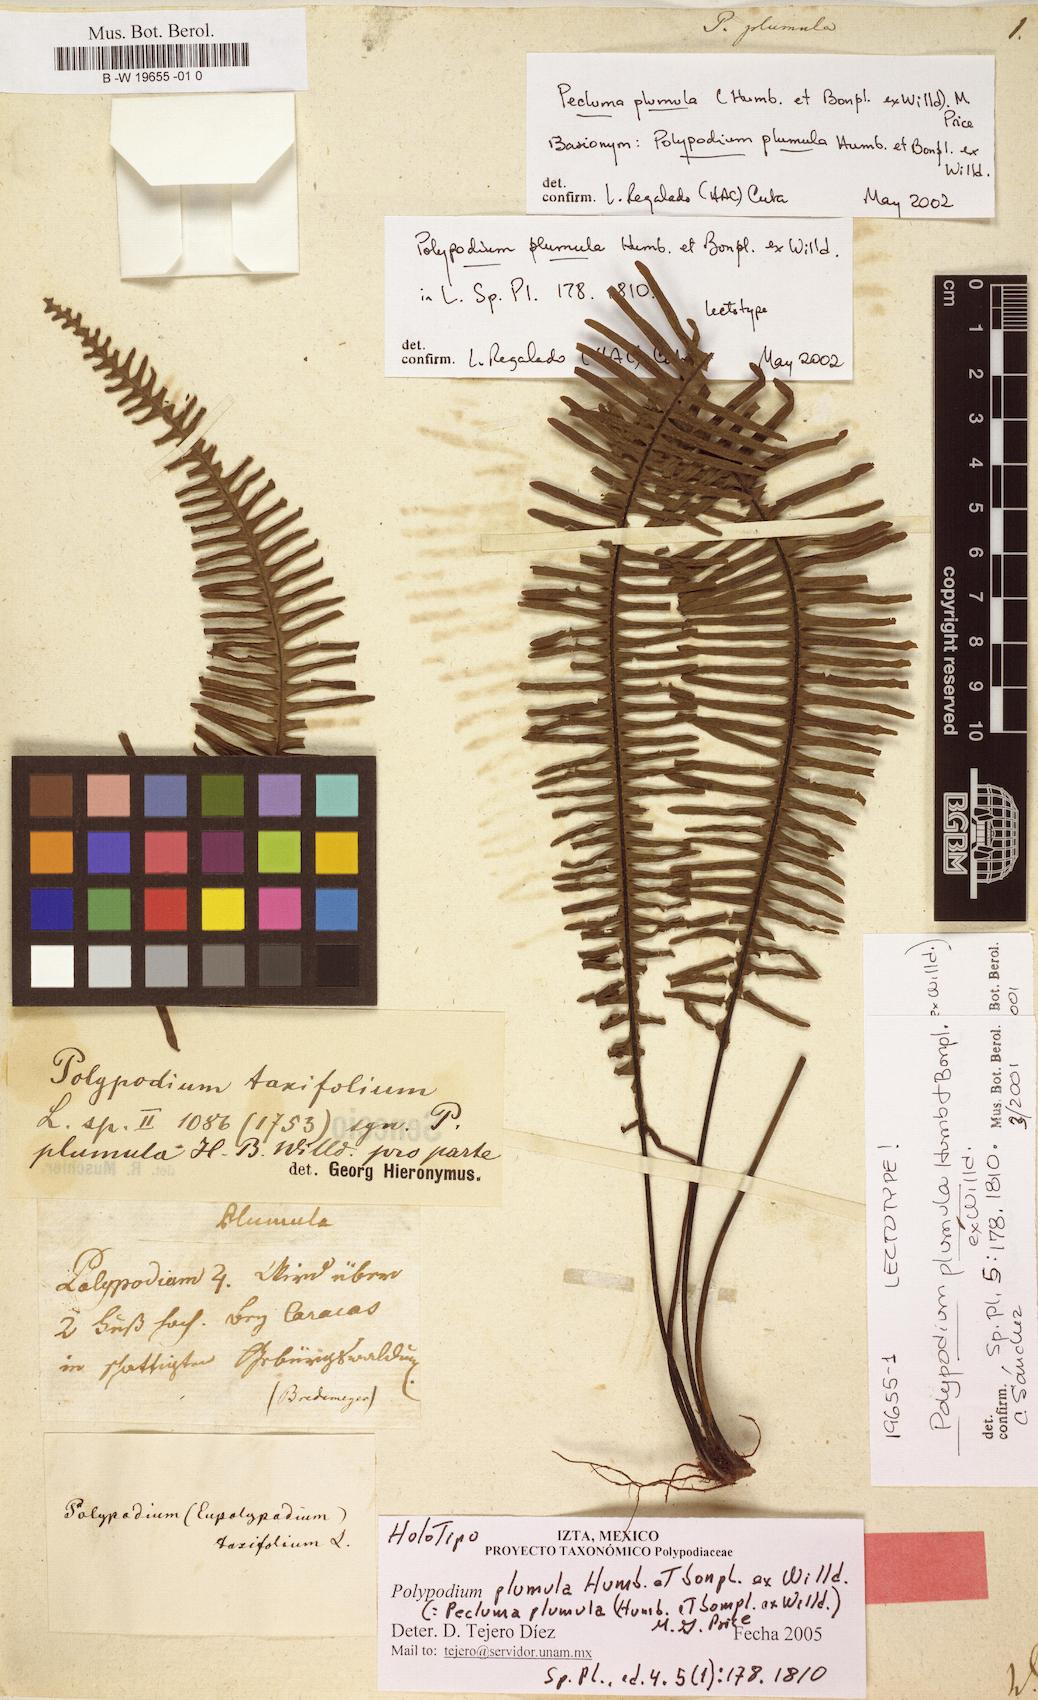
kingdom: Plantae
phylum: Tracheophyta
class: Polypodiopsida
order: Polypodiales
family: Polypodiaceae
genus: Pecluma
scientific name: Pecluma plumula
